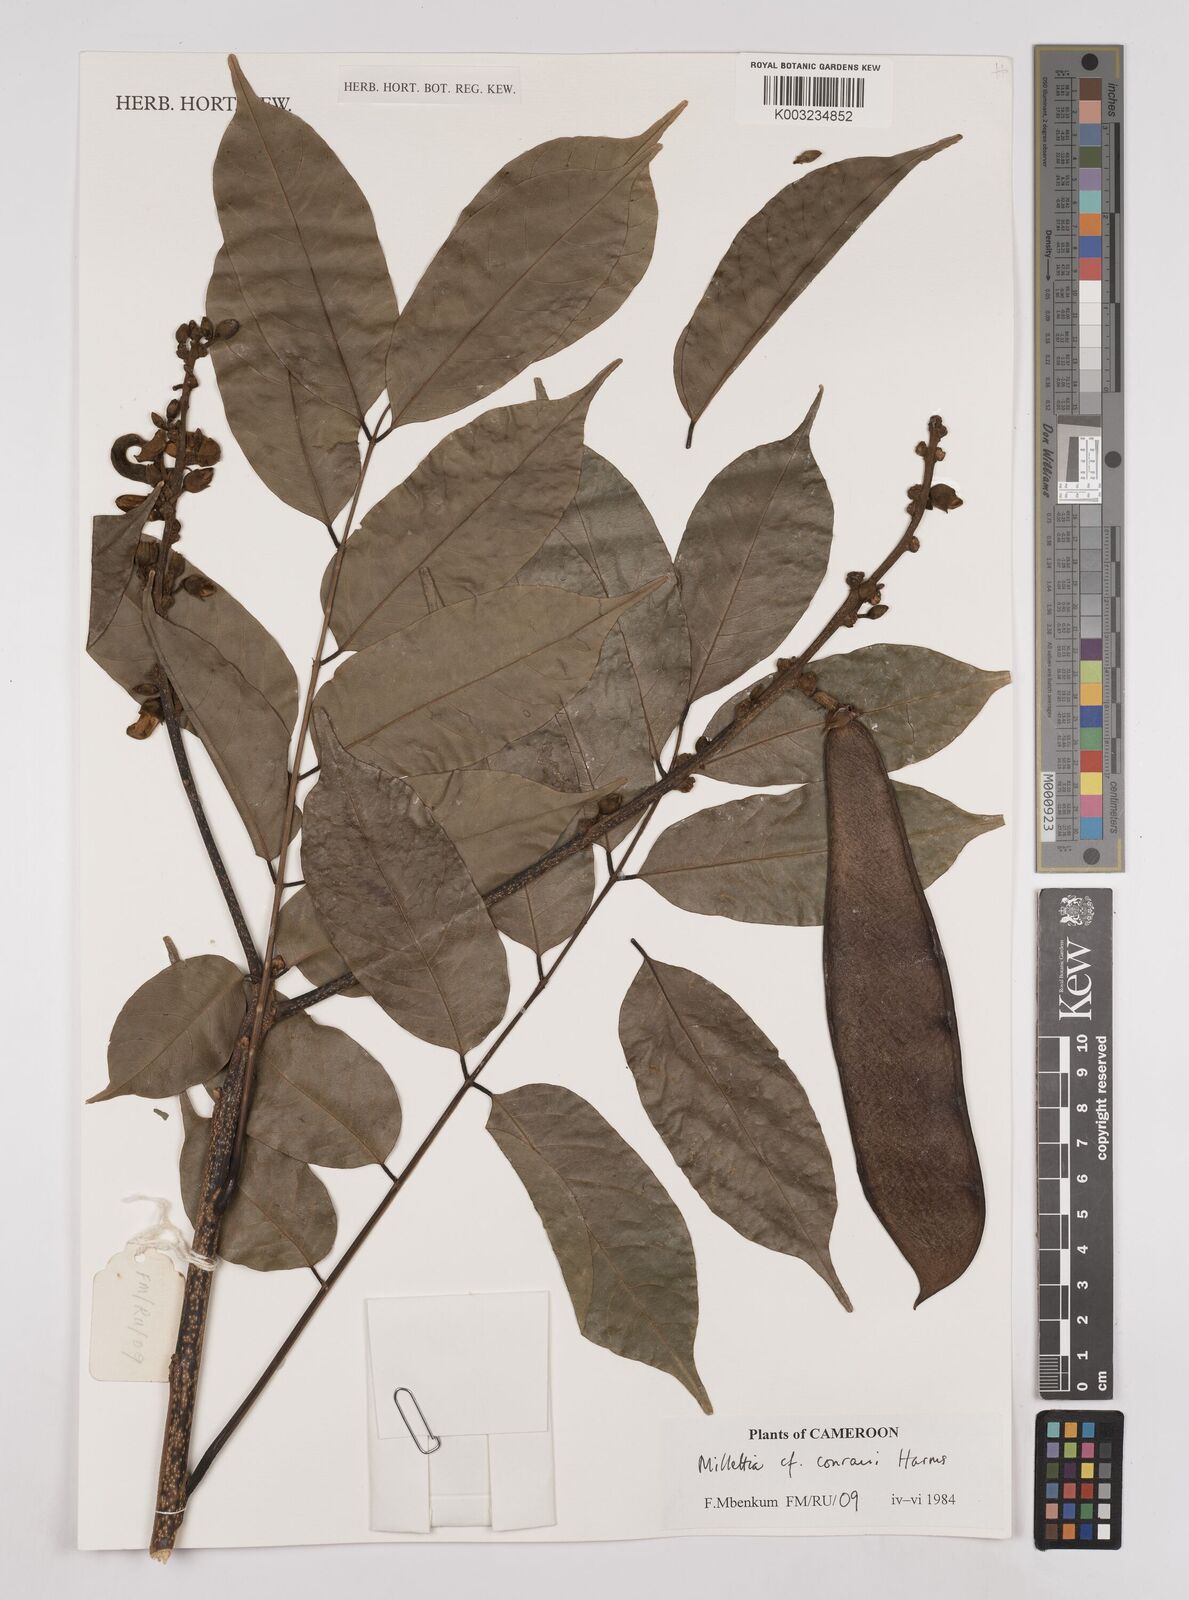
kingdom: Plantae
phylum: Tracheophyta
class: Magnoliopsida
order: Fabales
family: Fabaceae
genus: Millettia
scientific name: Millettia conraui
